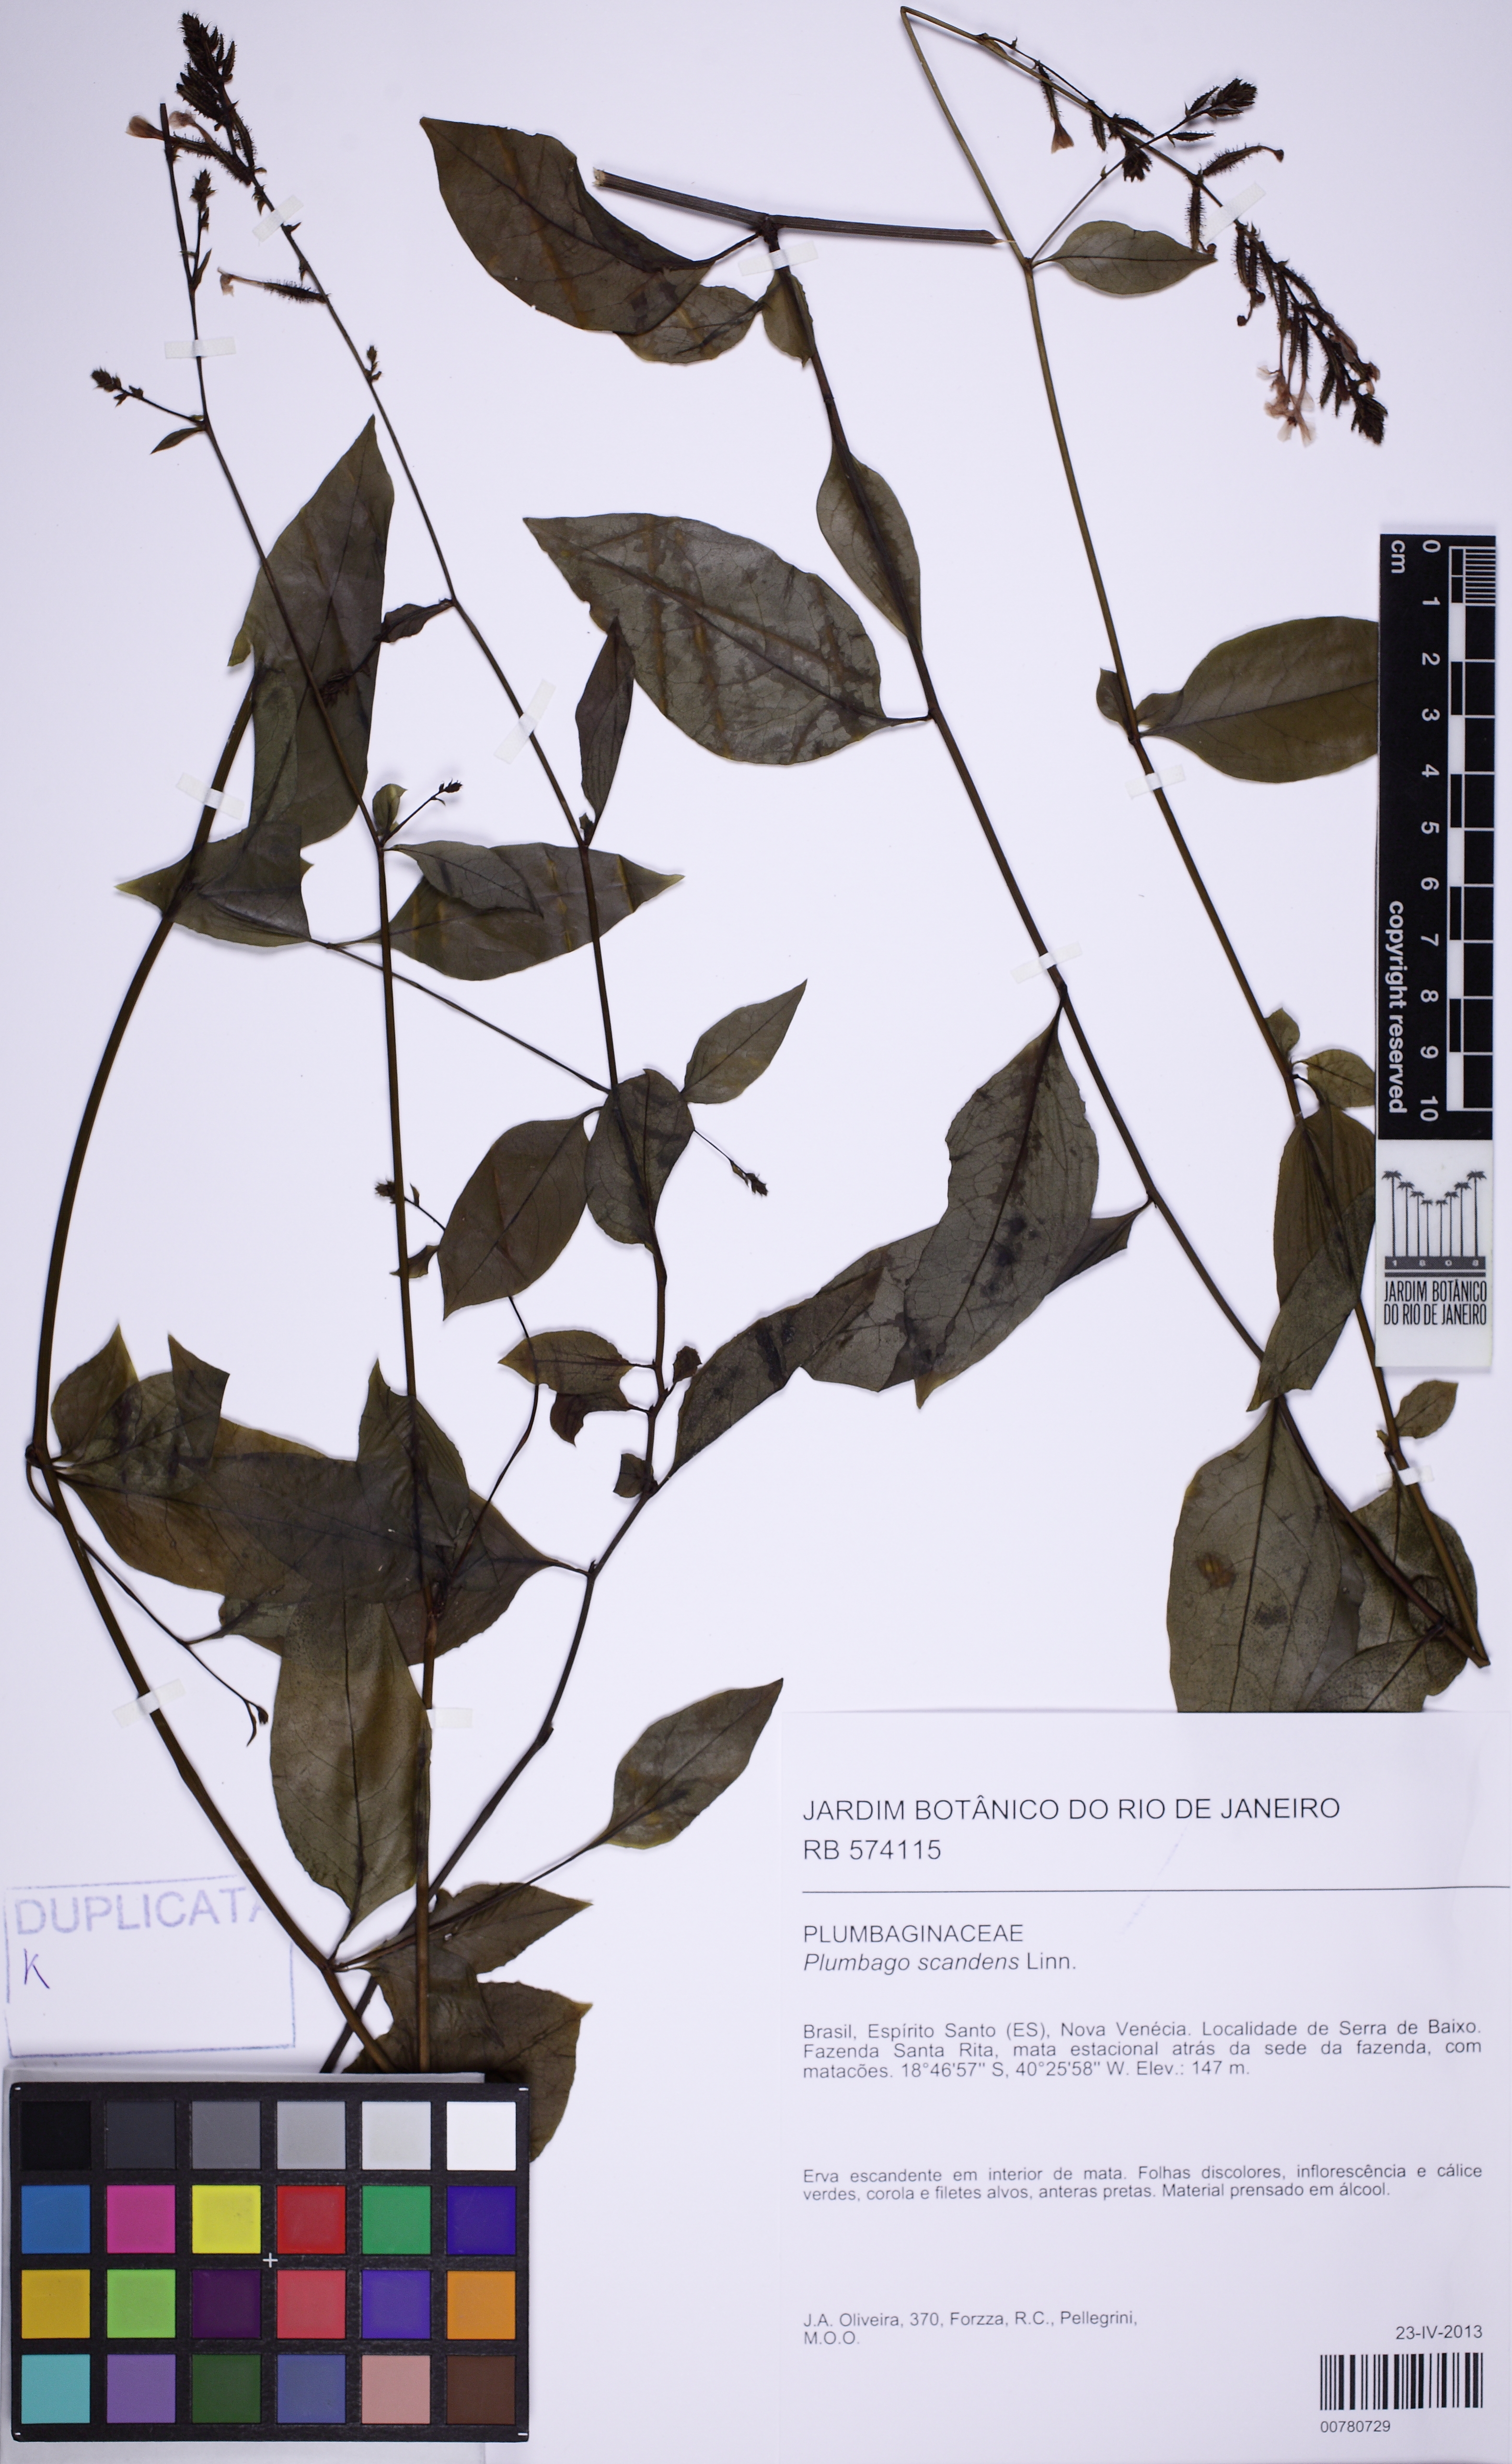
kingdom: Plantae
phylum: Tracheophyta
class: Magnoliopsida
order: Caryophyllales
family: Plumbaginaceae
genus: Plumbago
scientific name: Plumbago zeylanica
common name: Doctorbush
